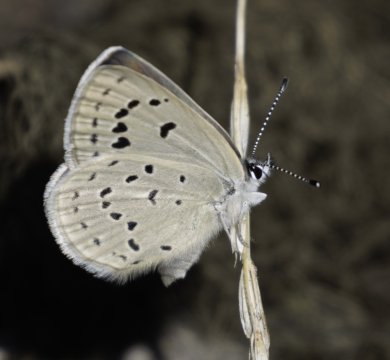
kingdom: Animalia
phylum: Arthropoda
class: Insecta
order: Lepidoptera
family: Lycaenidae
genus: Icaricia
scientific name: Icaricia icarioides
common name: Boisduval's Blue
